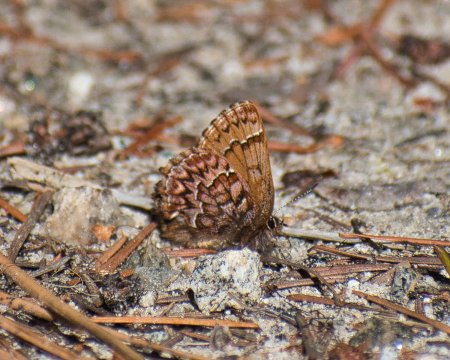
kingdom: Animalia
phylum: Arthropoda
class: Insecta
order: Lepidoptera
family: Lycaenidae
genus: Incisalia
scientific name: Incisalia eryphon
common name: Western Pine Elfin
